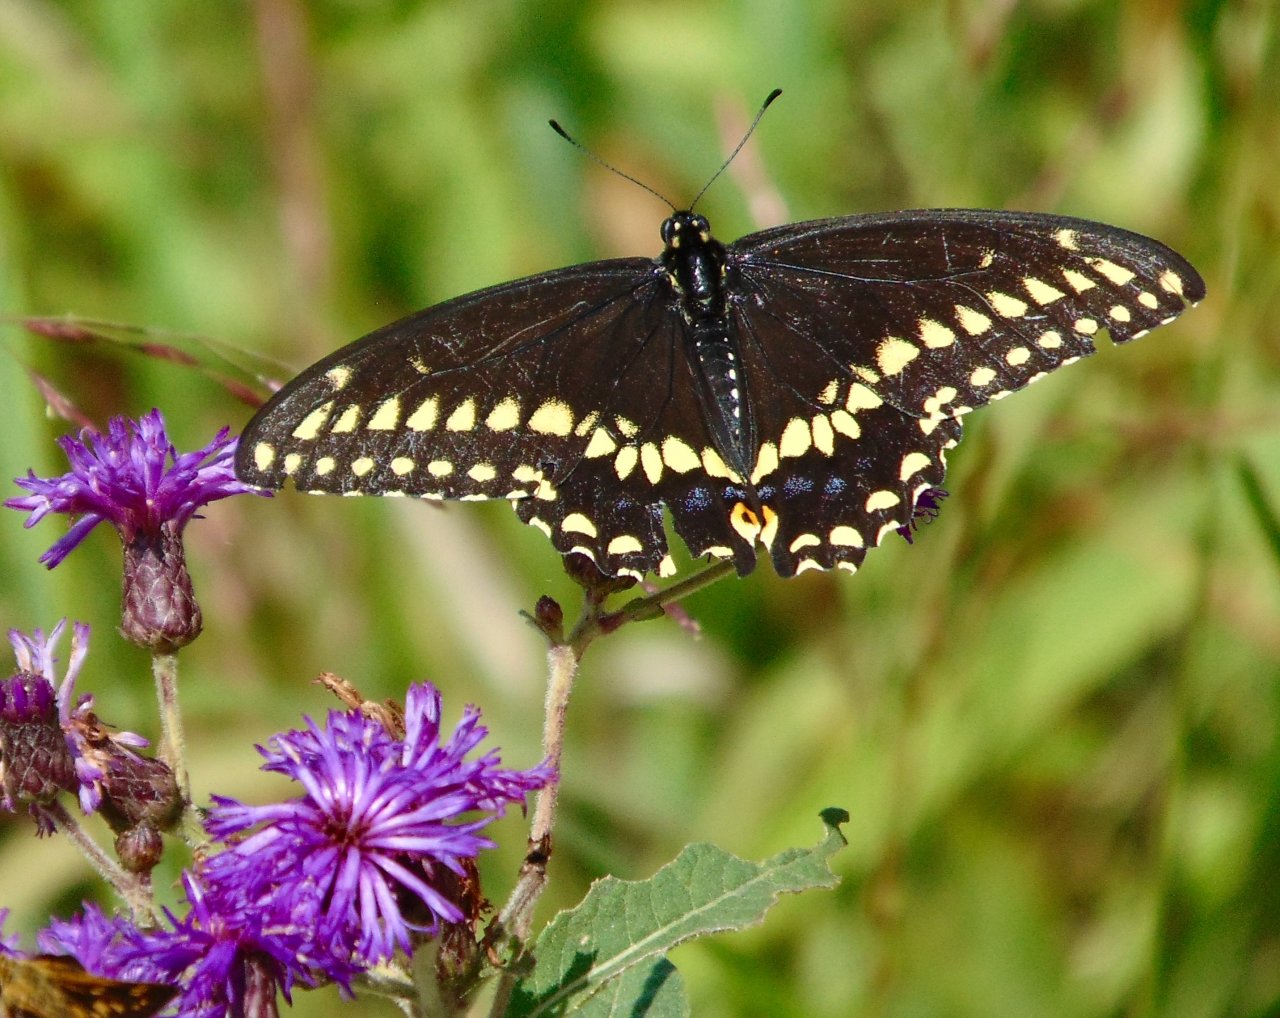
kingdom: Animalia
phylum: Arthropoda
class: Insecta
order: Lepidoptera
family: Papilionidae
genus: Papilio
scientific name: Papilio polyxenes
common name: Black Swallowtail
